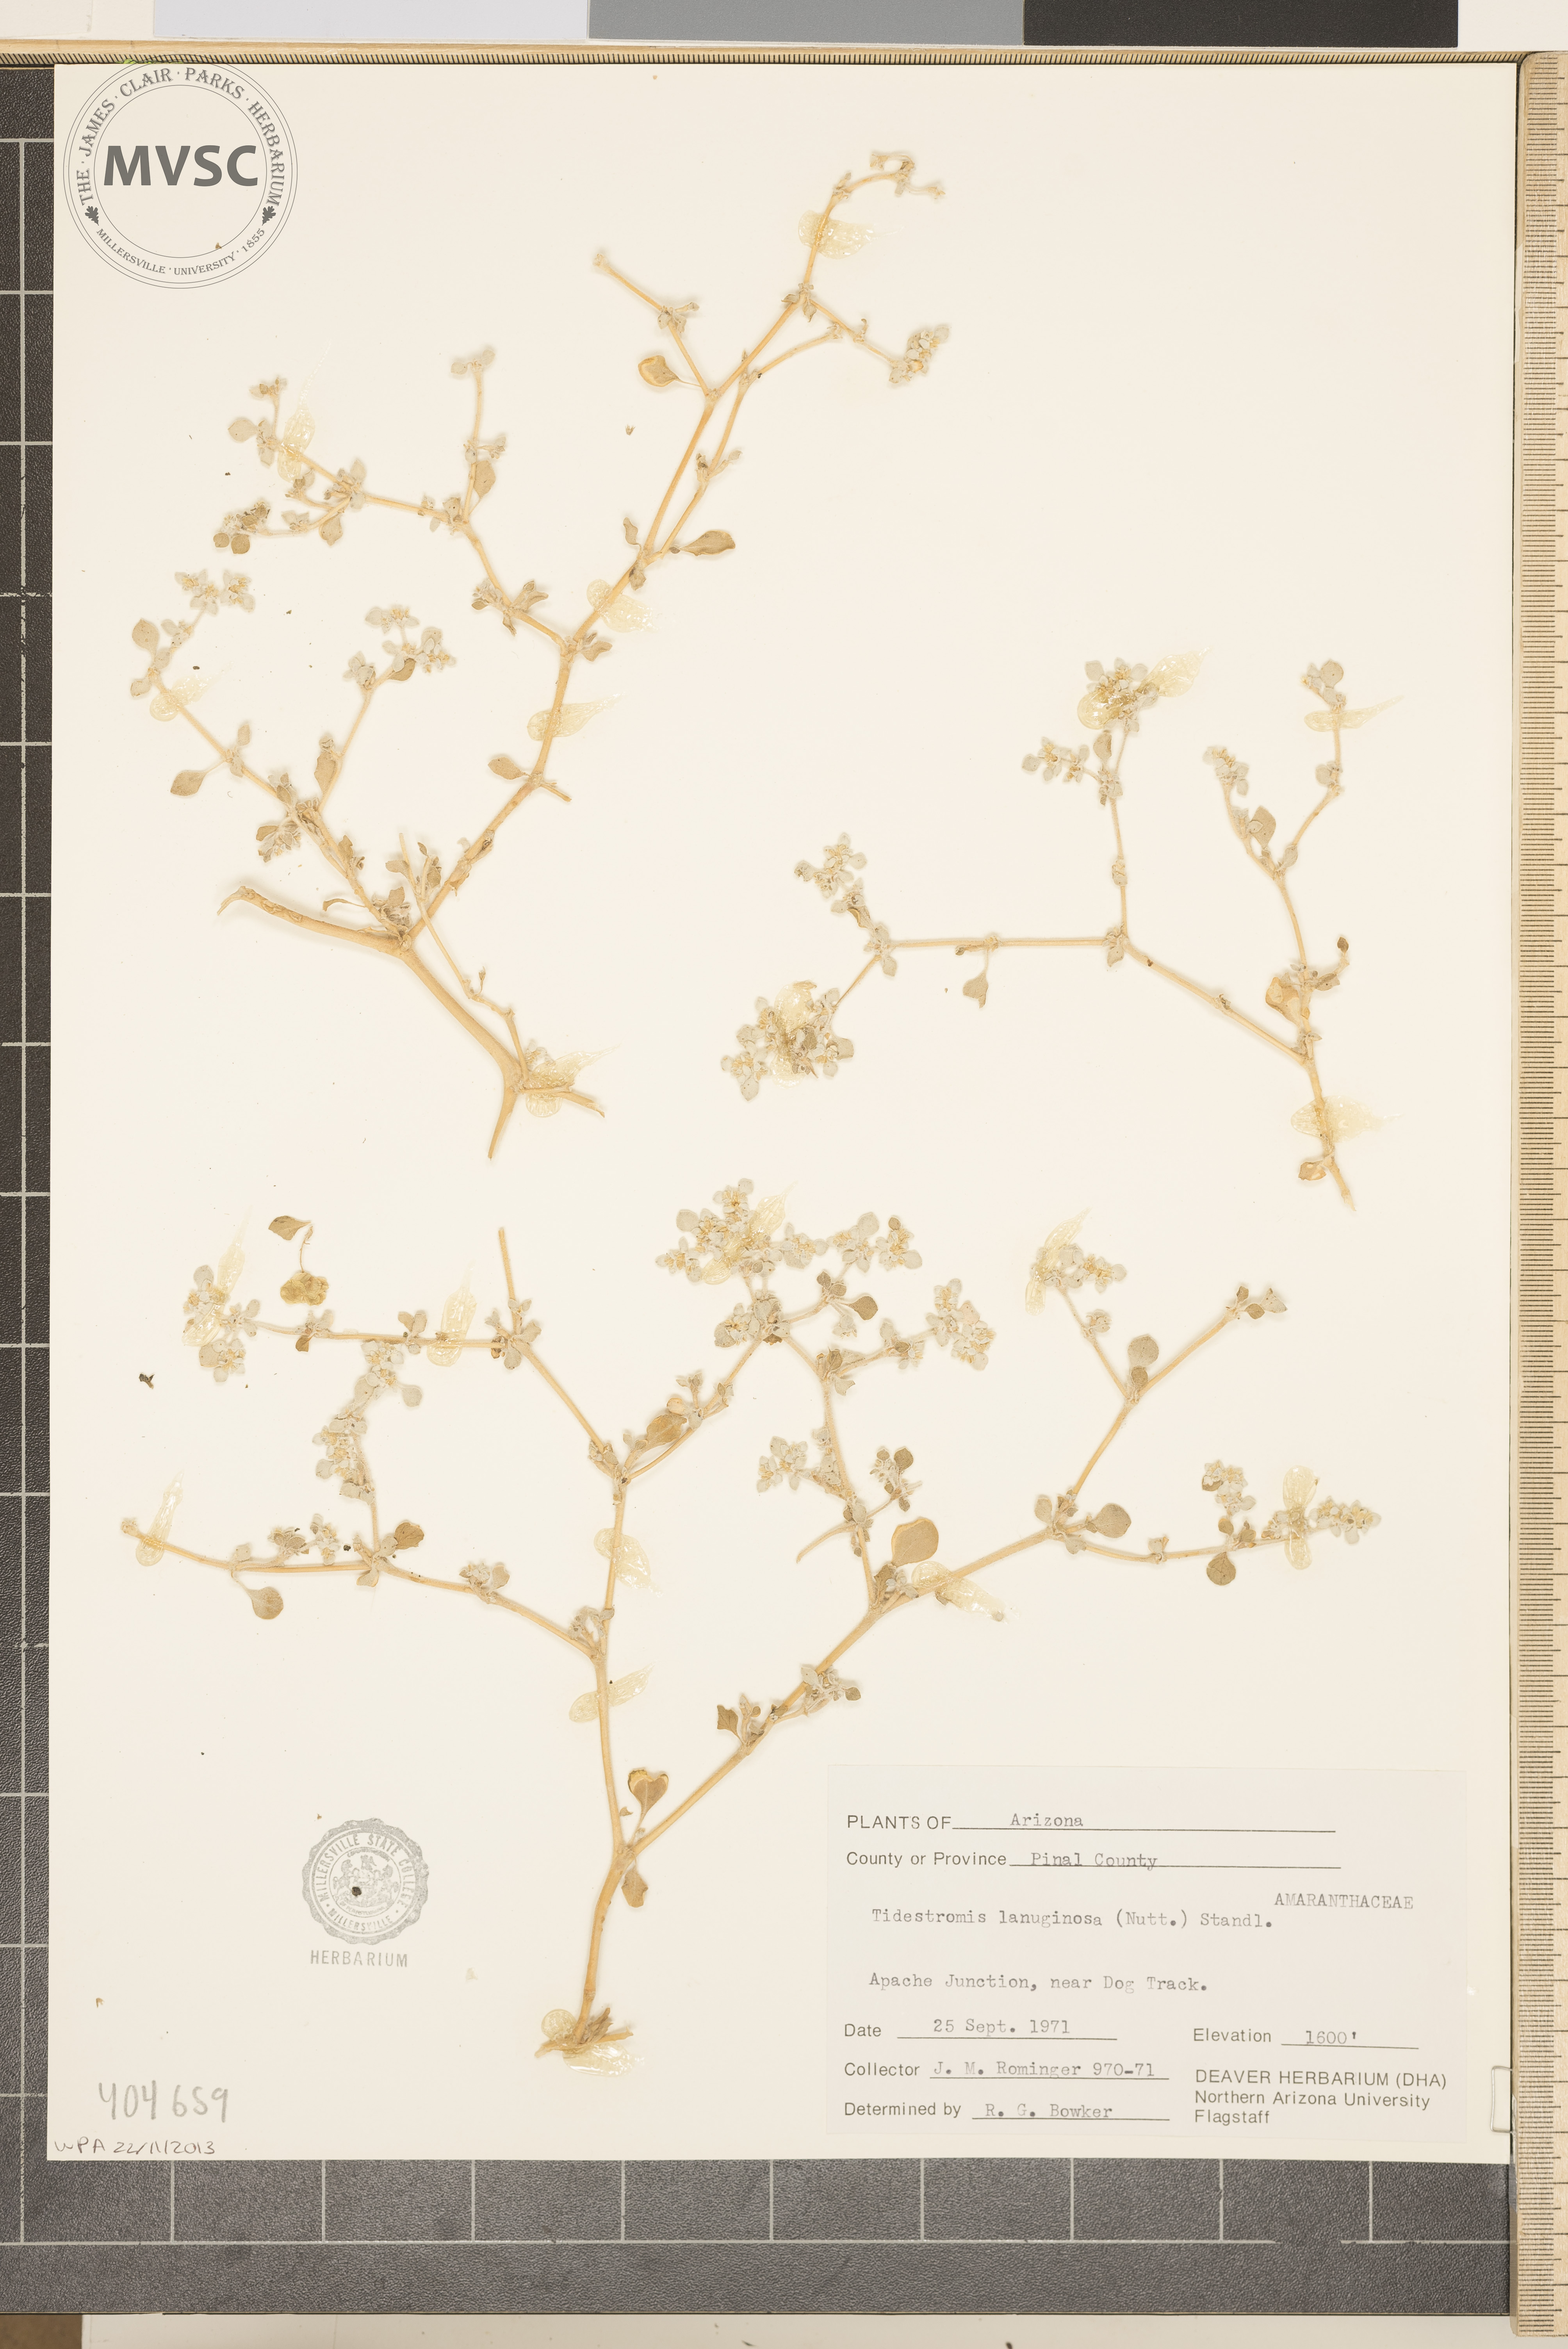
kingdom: Plantae
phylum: Tracheophyta
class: Magnoliopsida
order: Caryophyllales
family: Amaranthaceae
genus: Tidestromia
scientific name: Tidestromia lanuginosa
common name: Woolly tidestromia
